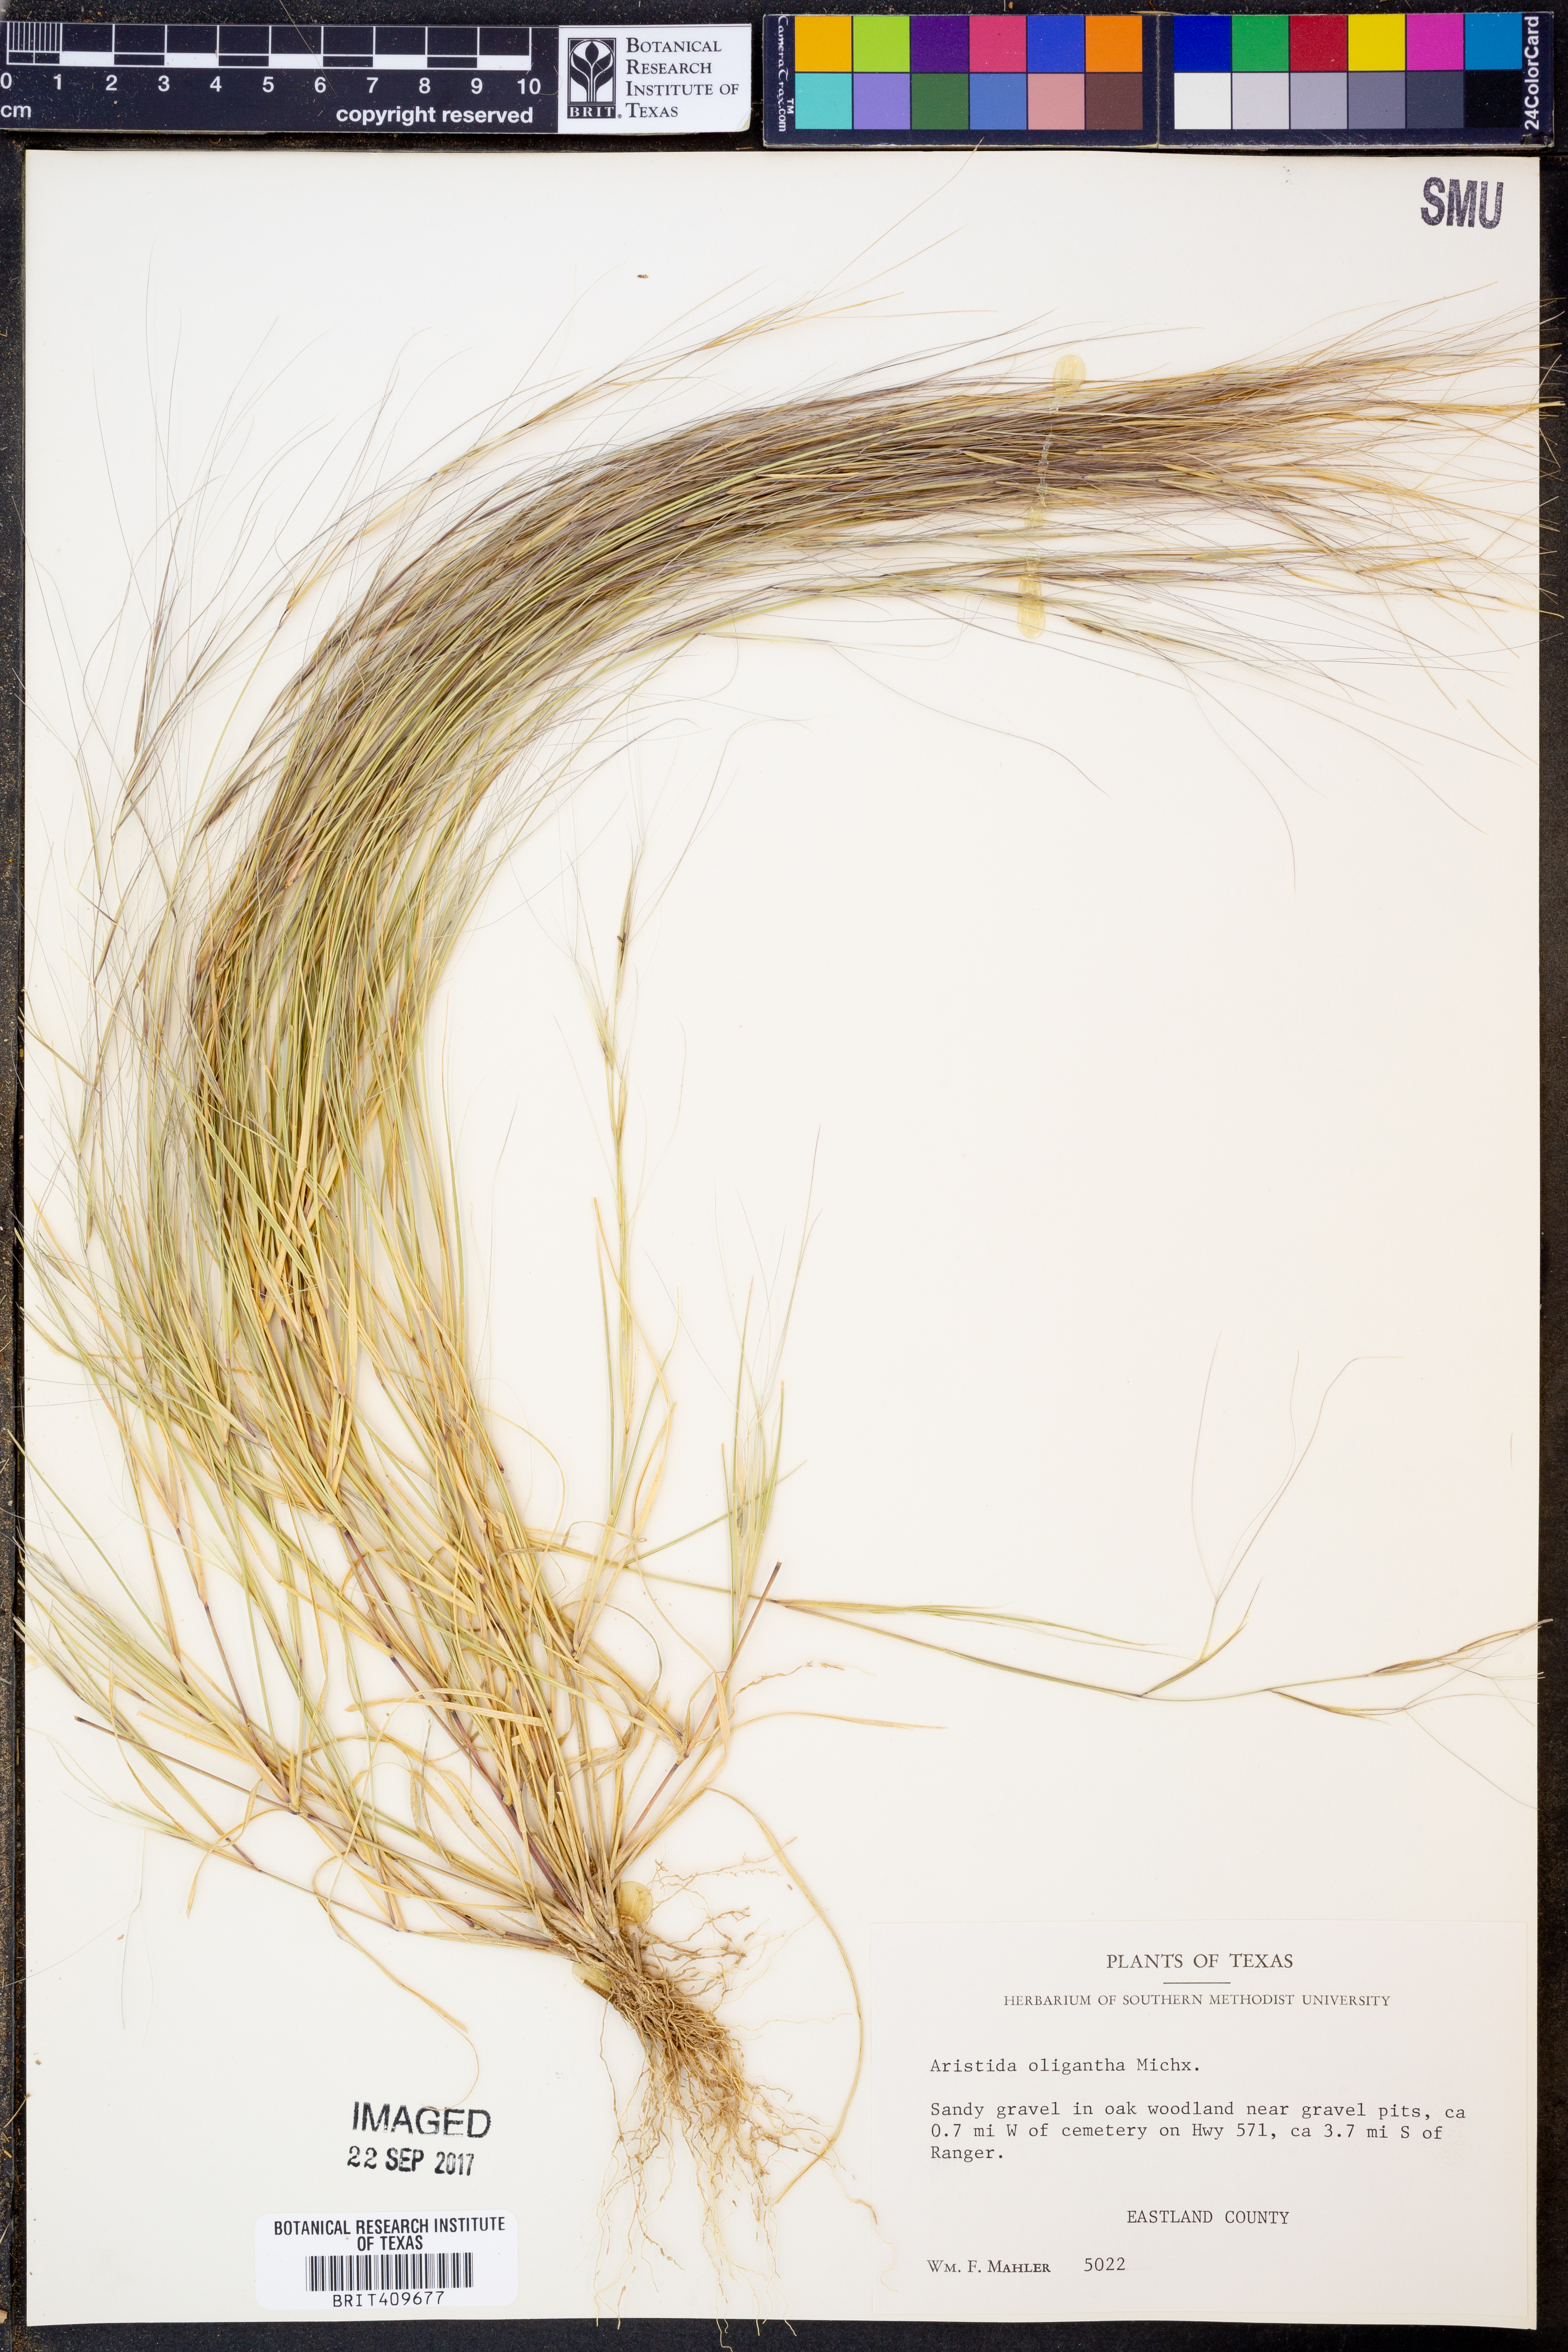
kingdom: Plantae
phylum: Tracheophyta
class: Liliopsida
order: Poales
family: Poaceae
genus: Aristida
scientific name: Aristida oligantha
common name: Few-flowered aristida
